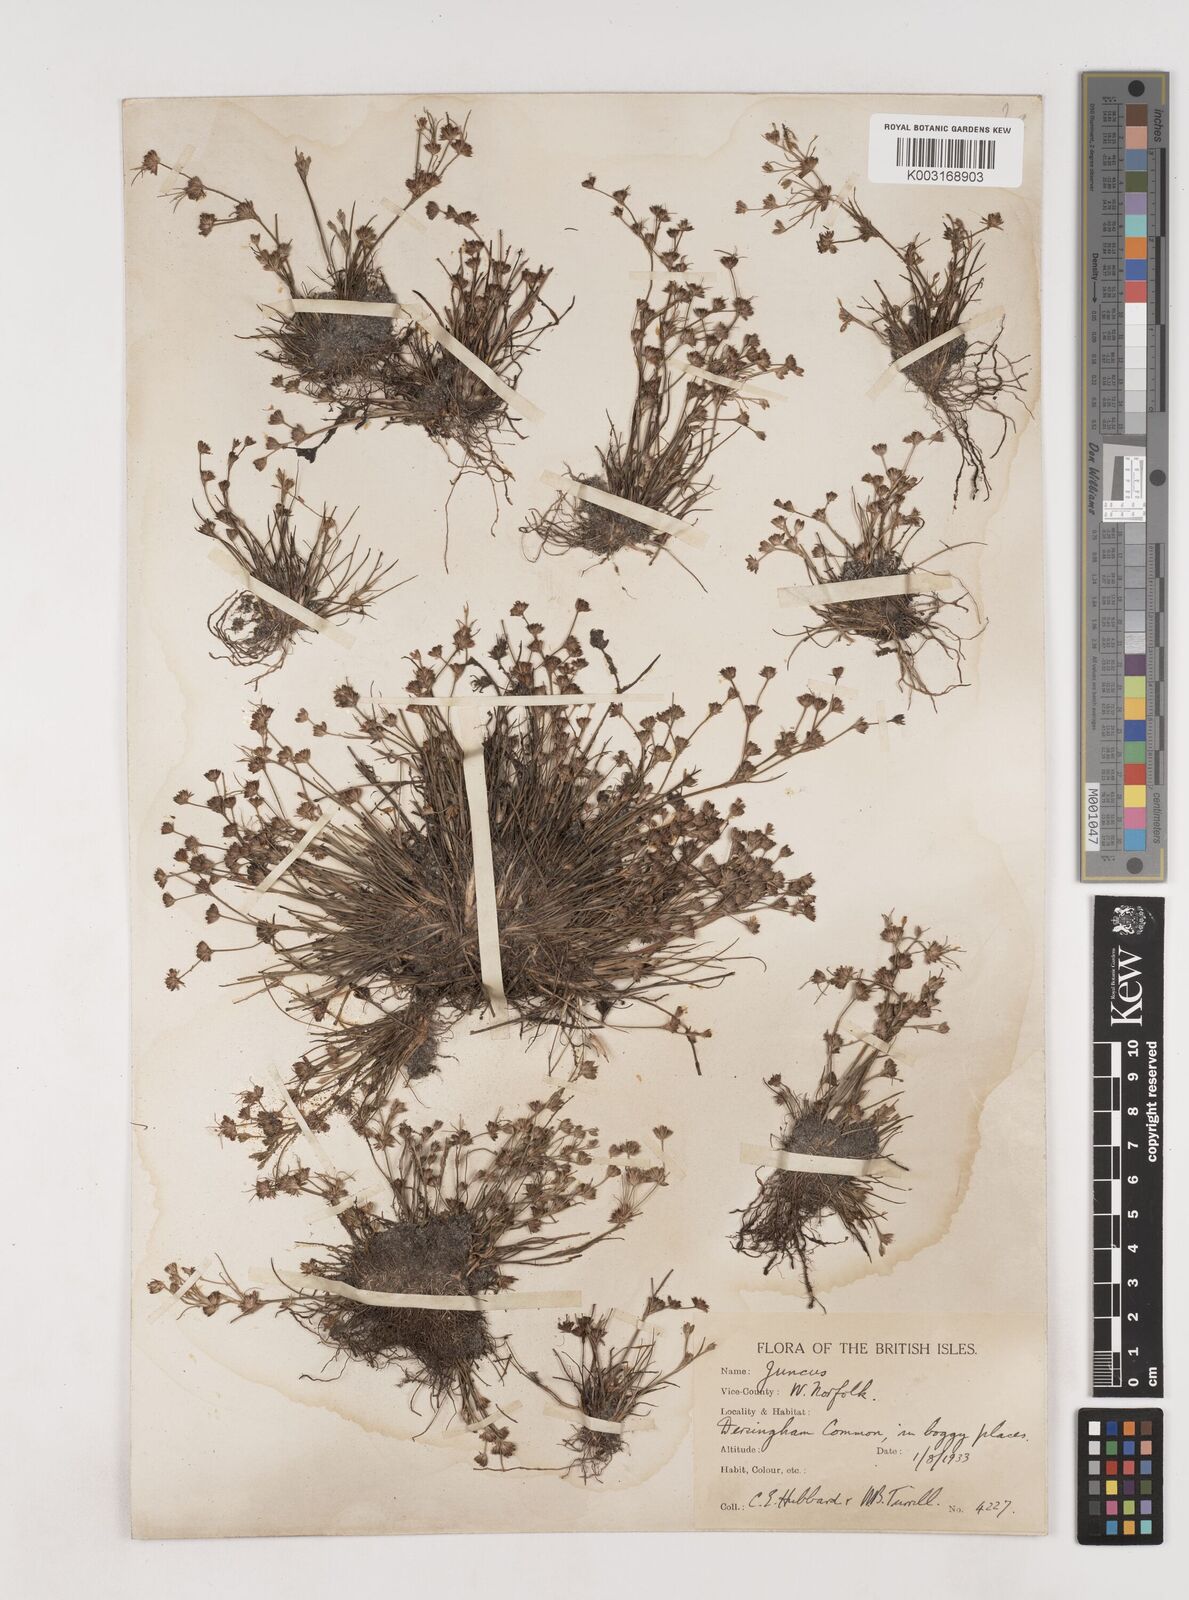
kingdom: Plantae
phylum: Tracheophyta
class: Liliopsida
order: Poales
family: Juncaceae
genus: Juncus
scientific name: Juncus bulbosus
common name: Bulbous rush
